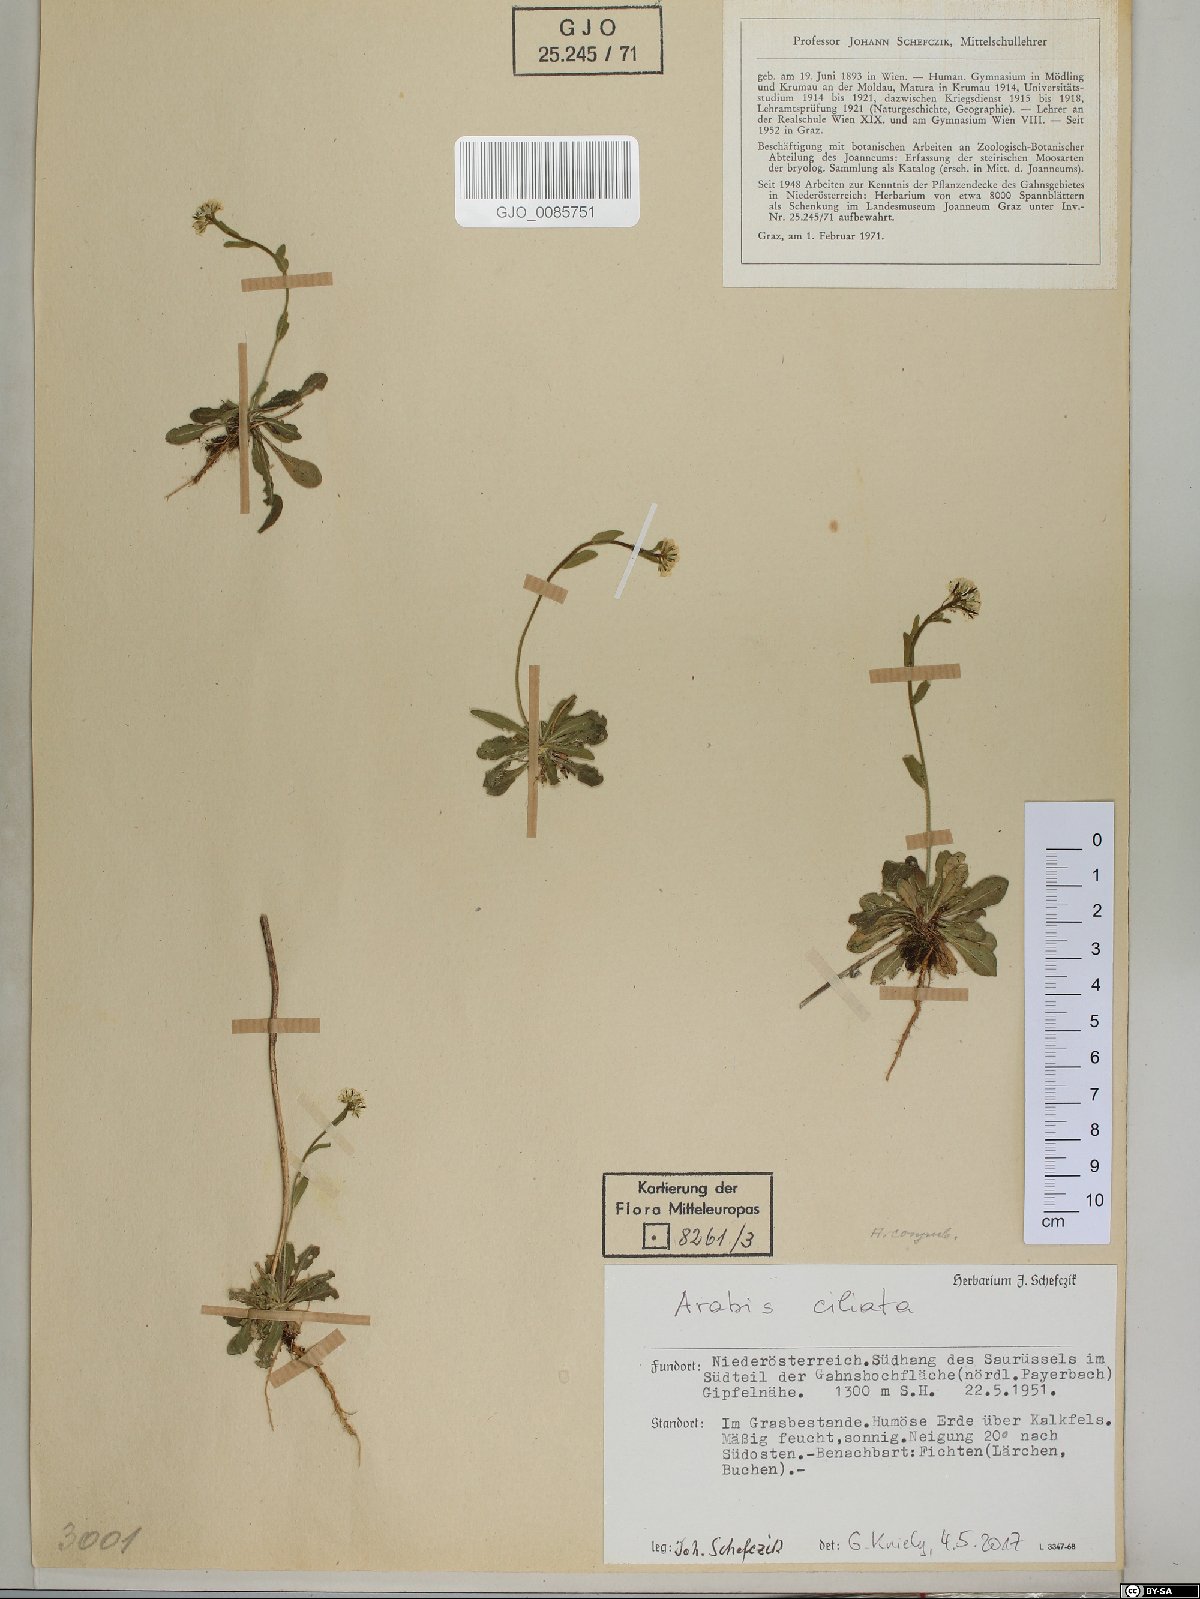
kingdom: Plantae
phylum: Tracheophyta
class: Magnoliopsida
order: Brassicales
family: Brassicaceae
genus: Arabis
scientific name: Arabis ciliata
